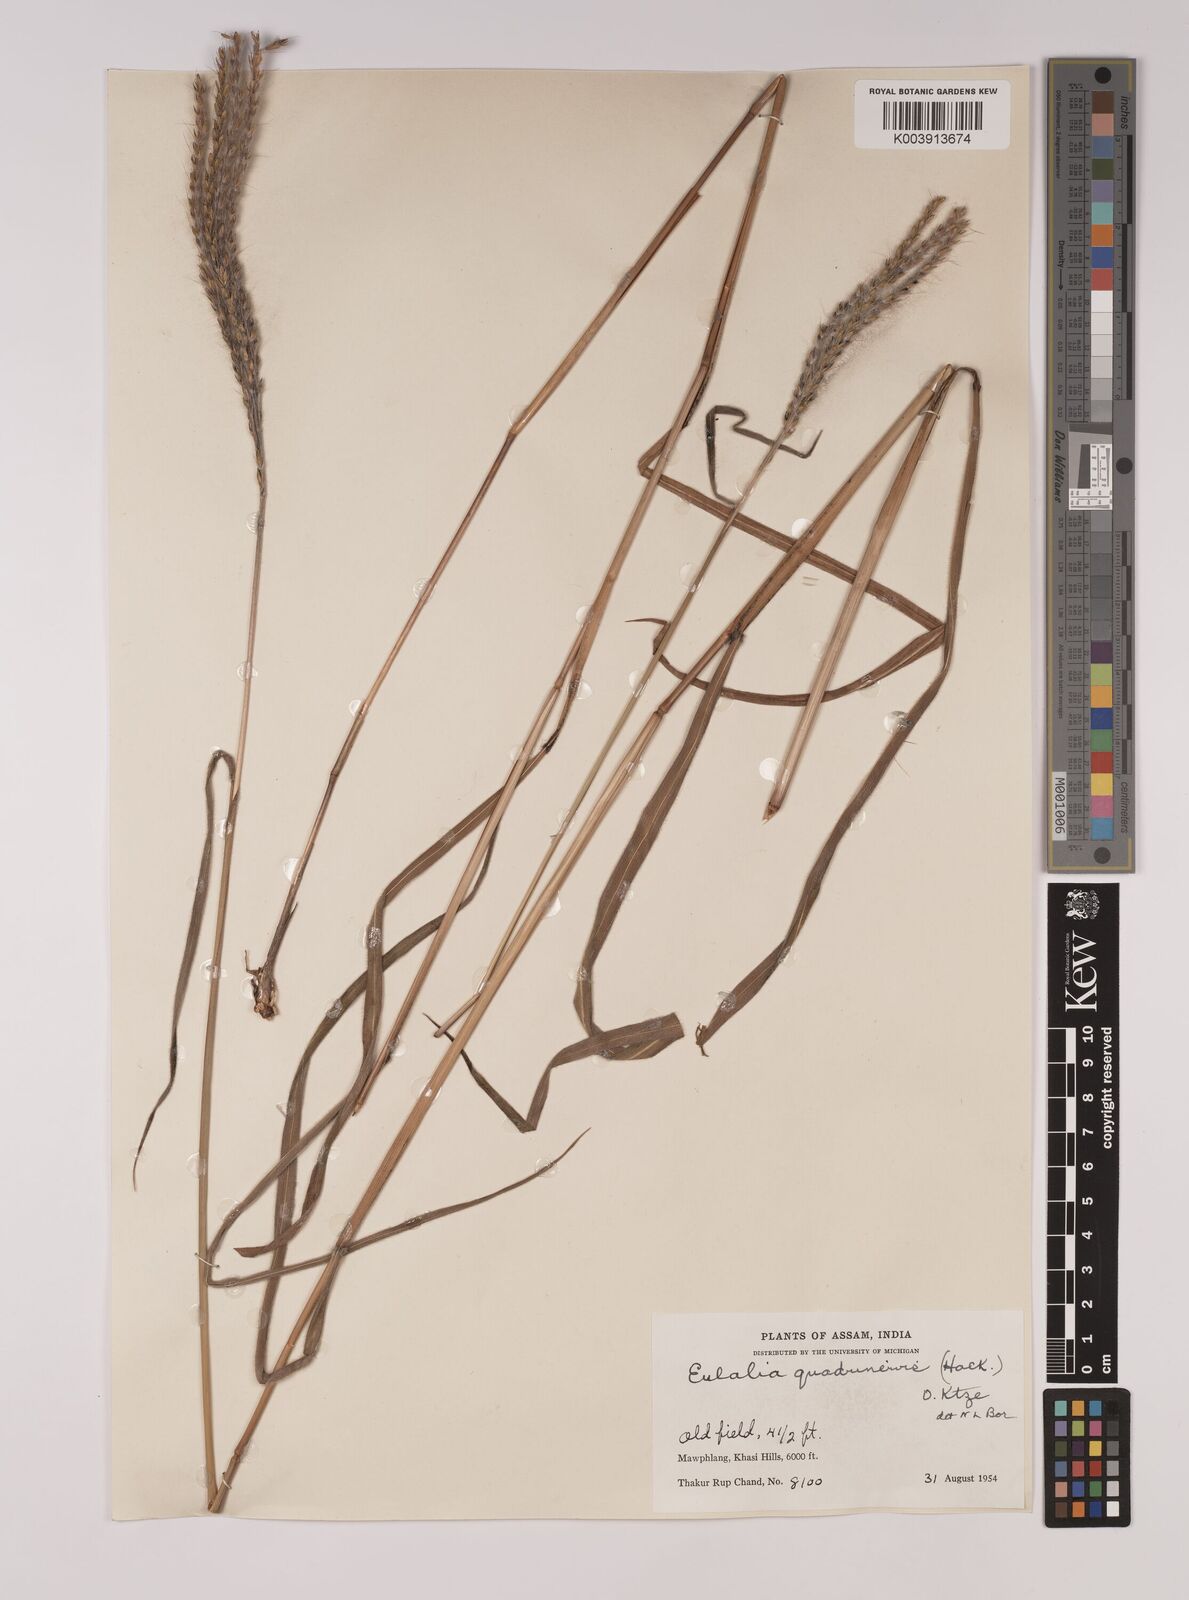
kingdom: Plantae
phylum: Tracheophyta
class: Liliopsida
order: Poales
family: Poaceae
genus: Pseudopogonatherum
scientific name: Pseudopogonatherum quadrinerve
